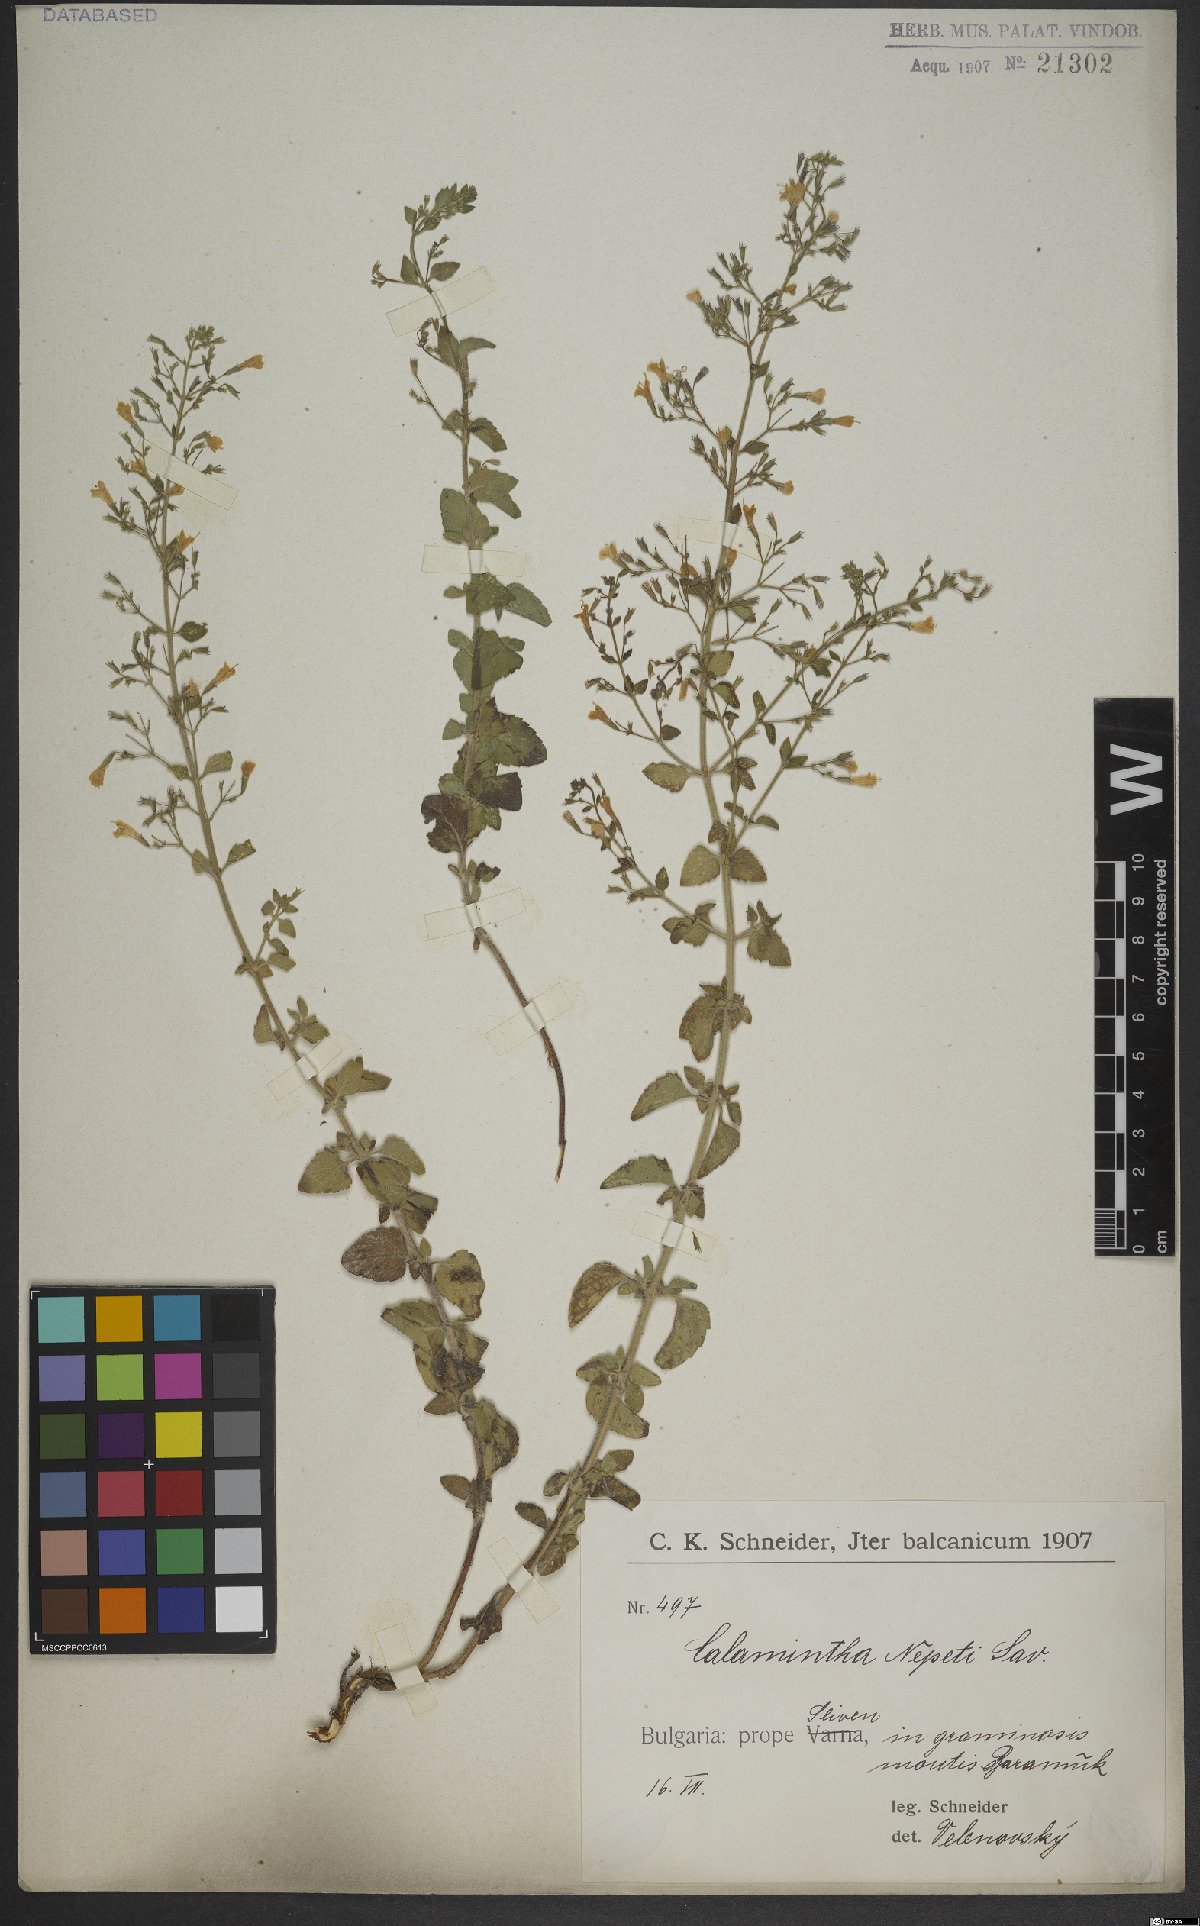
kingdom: Plantae
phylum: Tracheophyta
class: Magnoliopsida
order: Lamiales
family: Lamiaceae
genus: Clinopodium
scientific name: Clinopodium nepeta
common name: Lesser calamint
